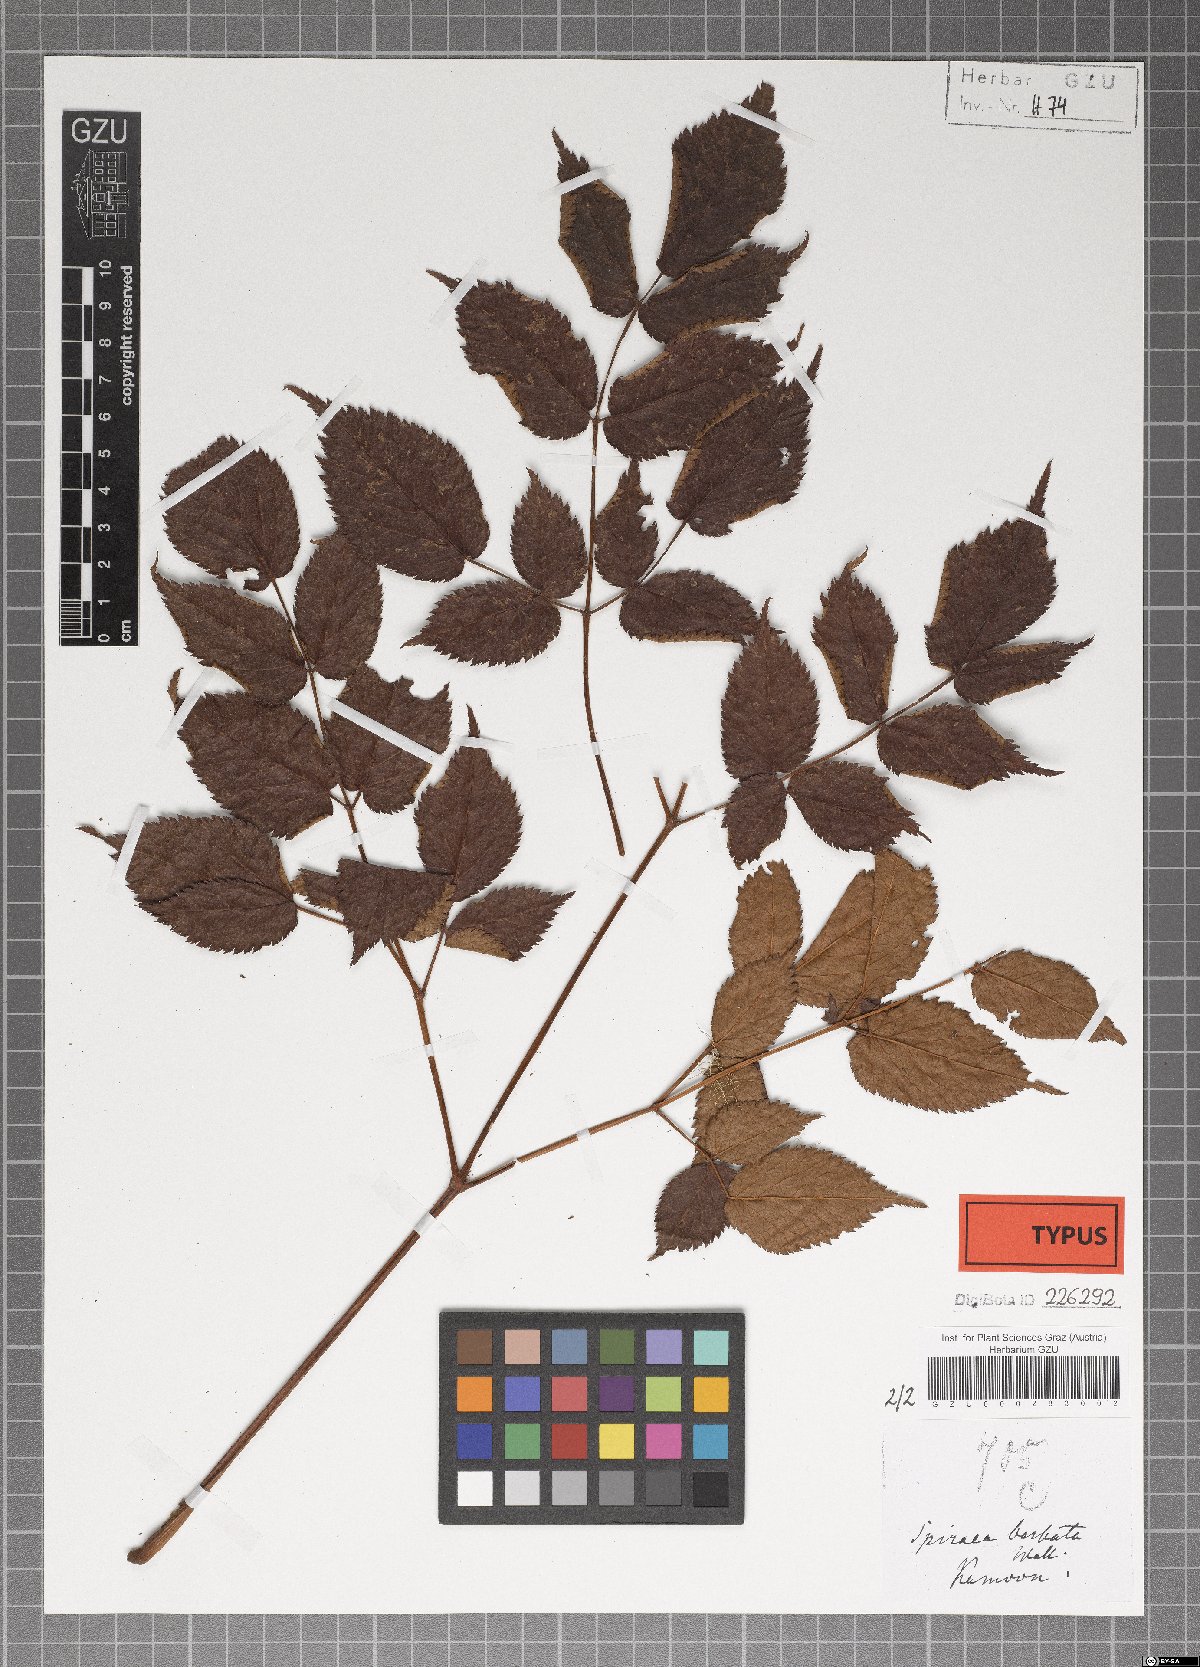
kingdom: Plantae
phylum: Tracheophyta
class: Magnoliopsida
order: Saxifragales
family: Saxifragaceae
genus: Astilbe
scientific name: Astilbe rivularis
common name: Tall false-buck's-beard
